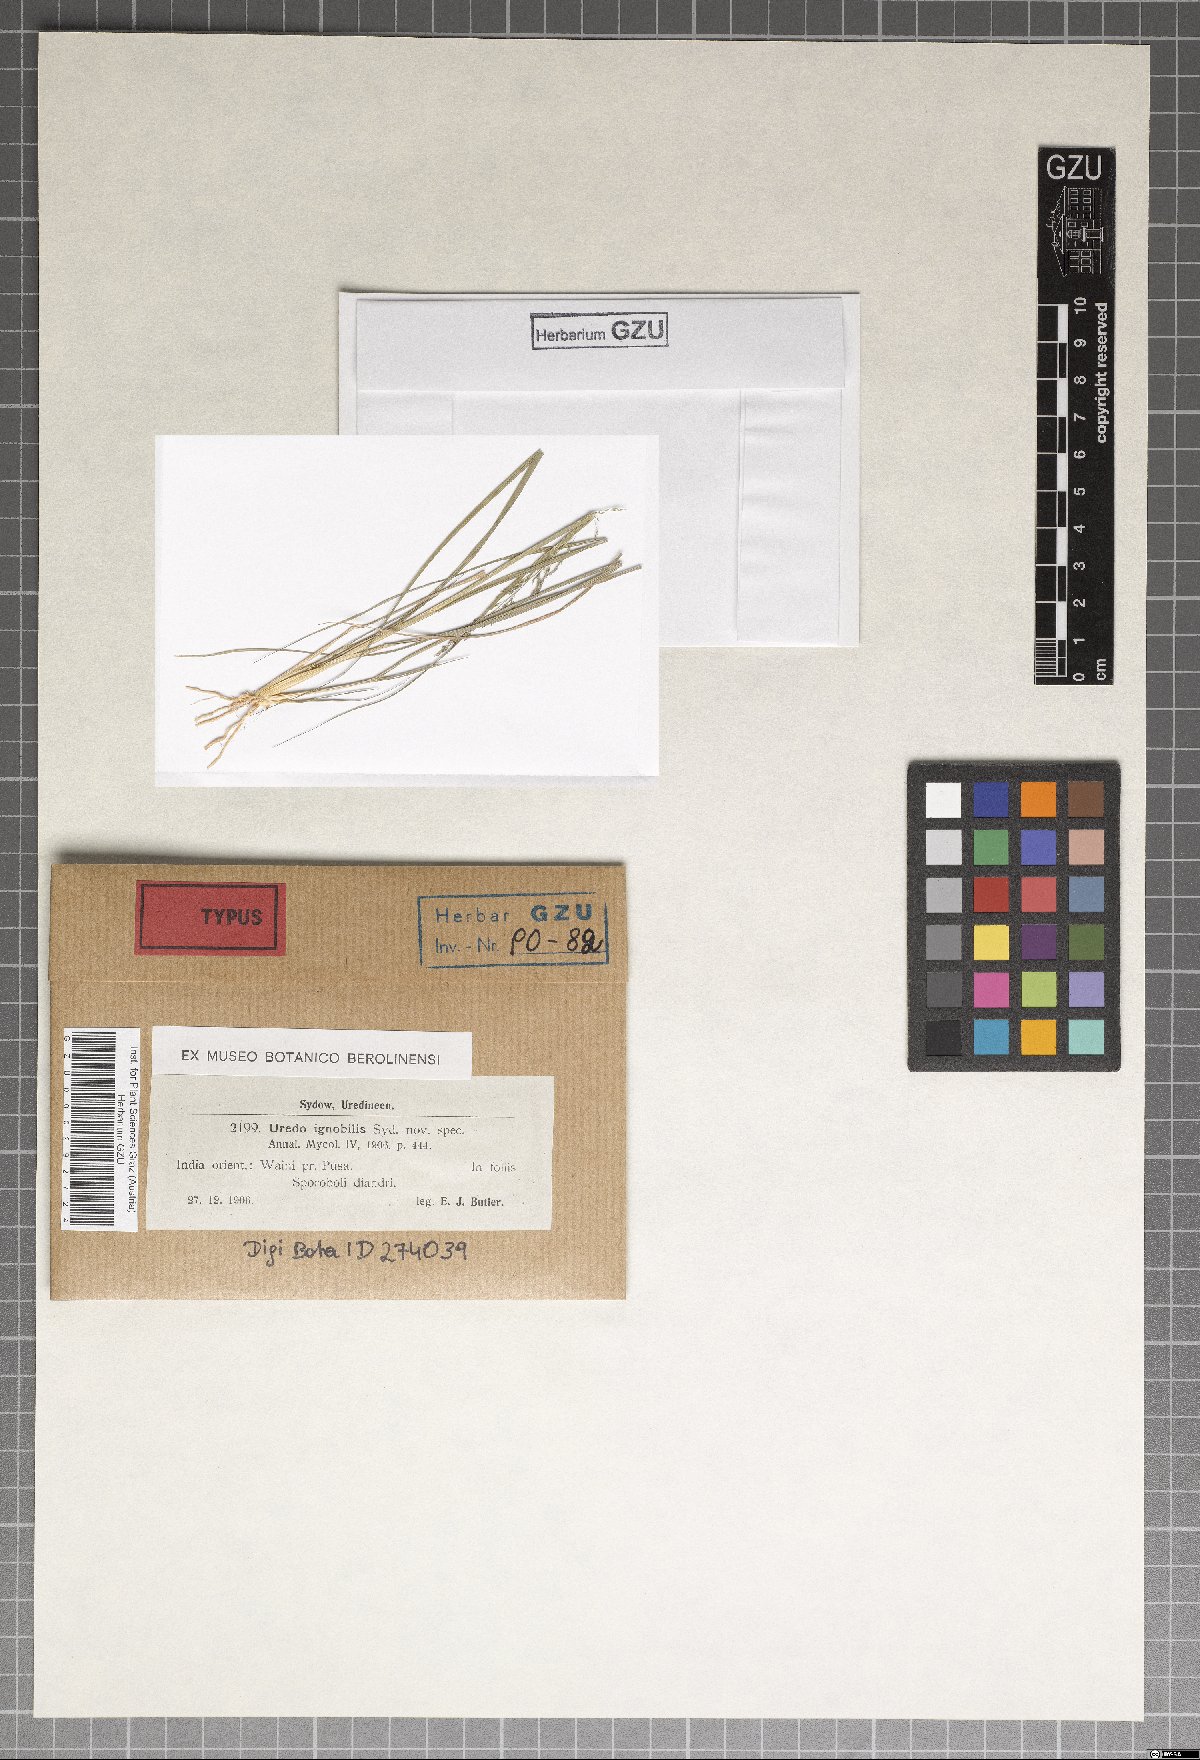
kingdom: Fungi
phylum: Basidiomycota
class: Pucciniomycetes
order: Pucciniales
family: Pucciniaceae
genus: Uromyces
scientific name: Uromyces ignobilis
